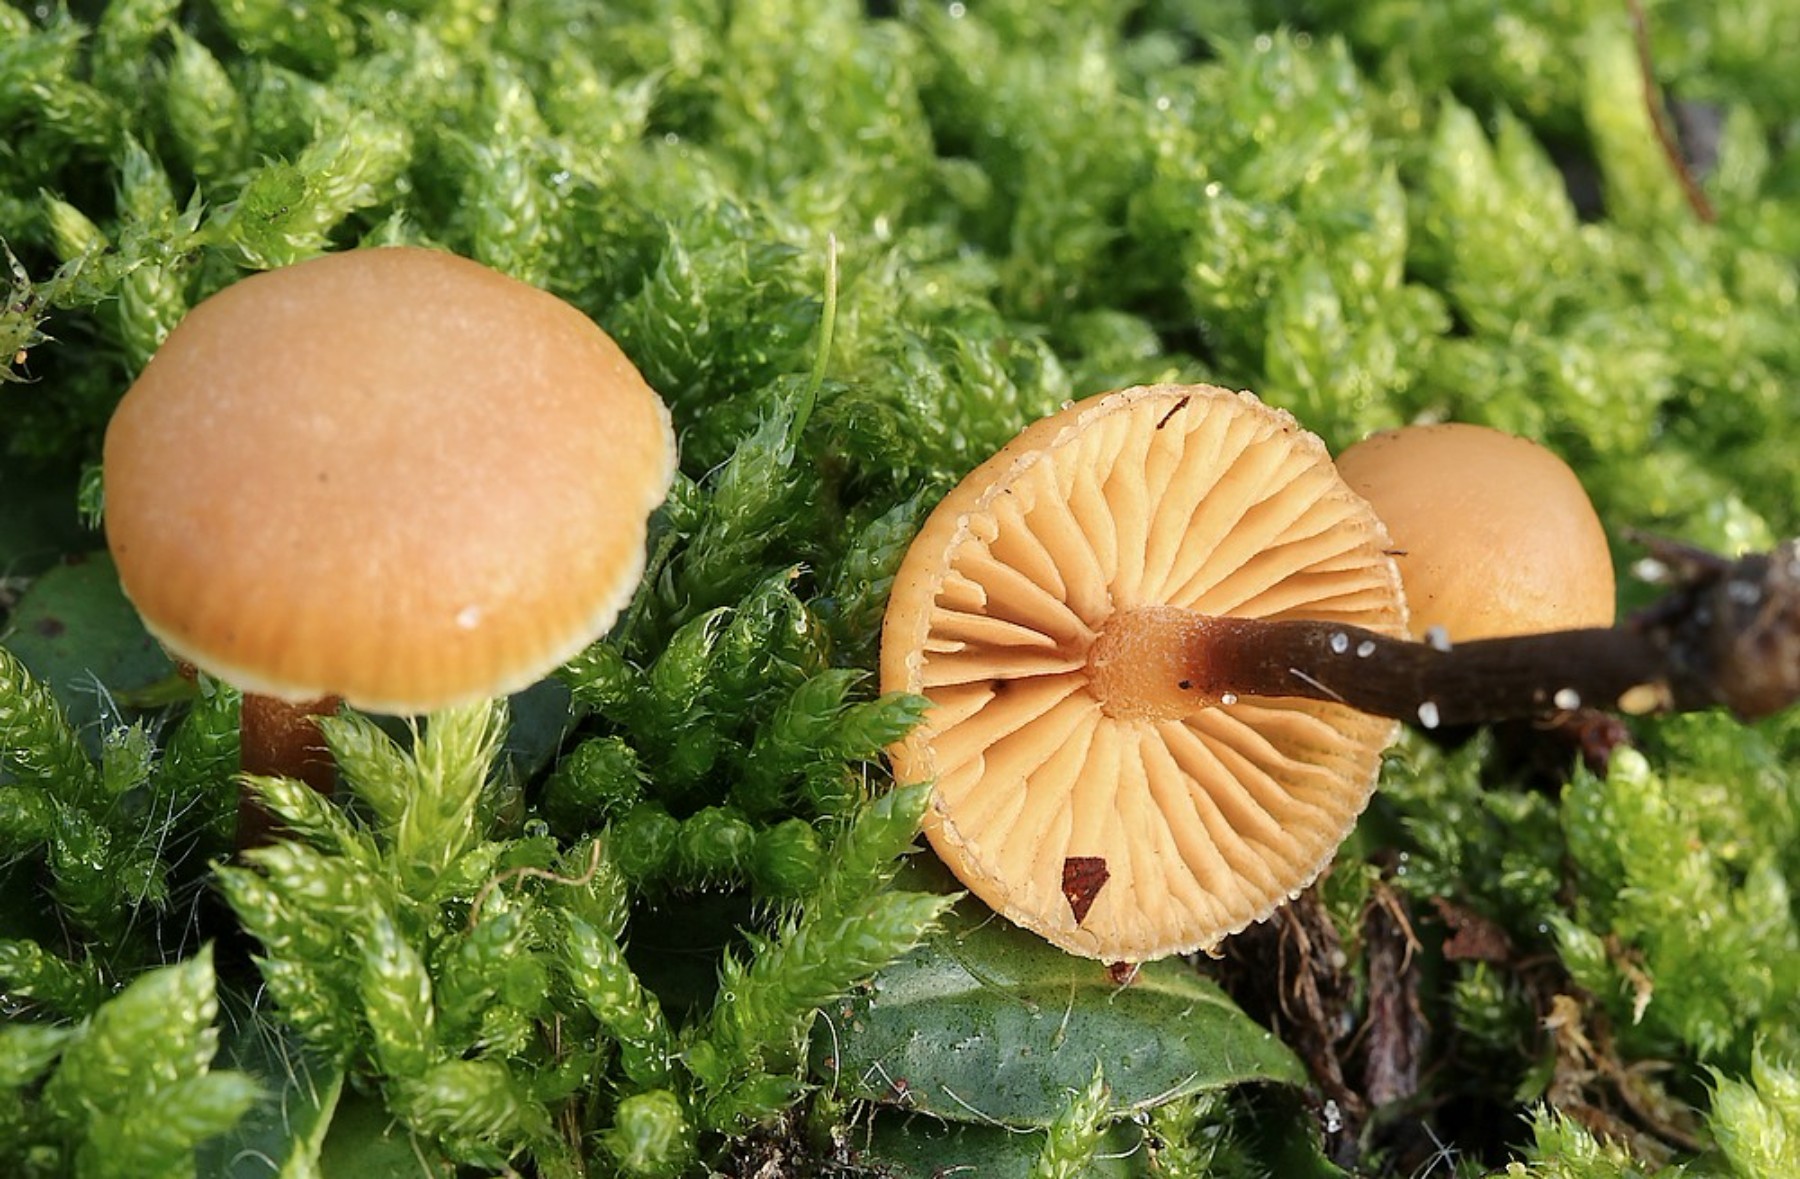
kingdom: Fungi
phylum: Basidiomycota
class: Agaricomycetes
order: Agaricales
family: Hymenogastraceae
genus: Galerina
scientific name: Galerina
